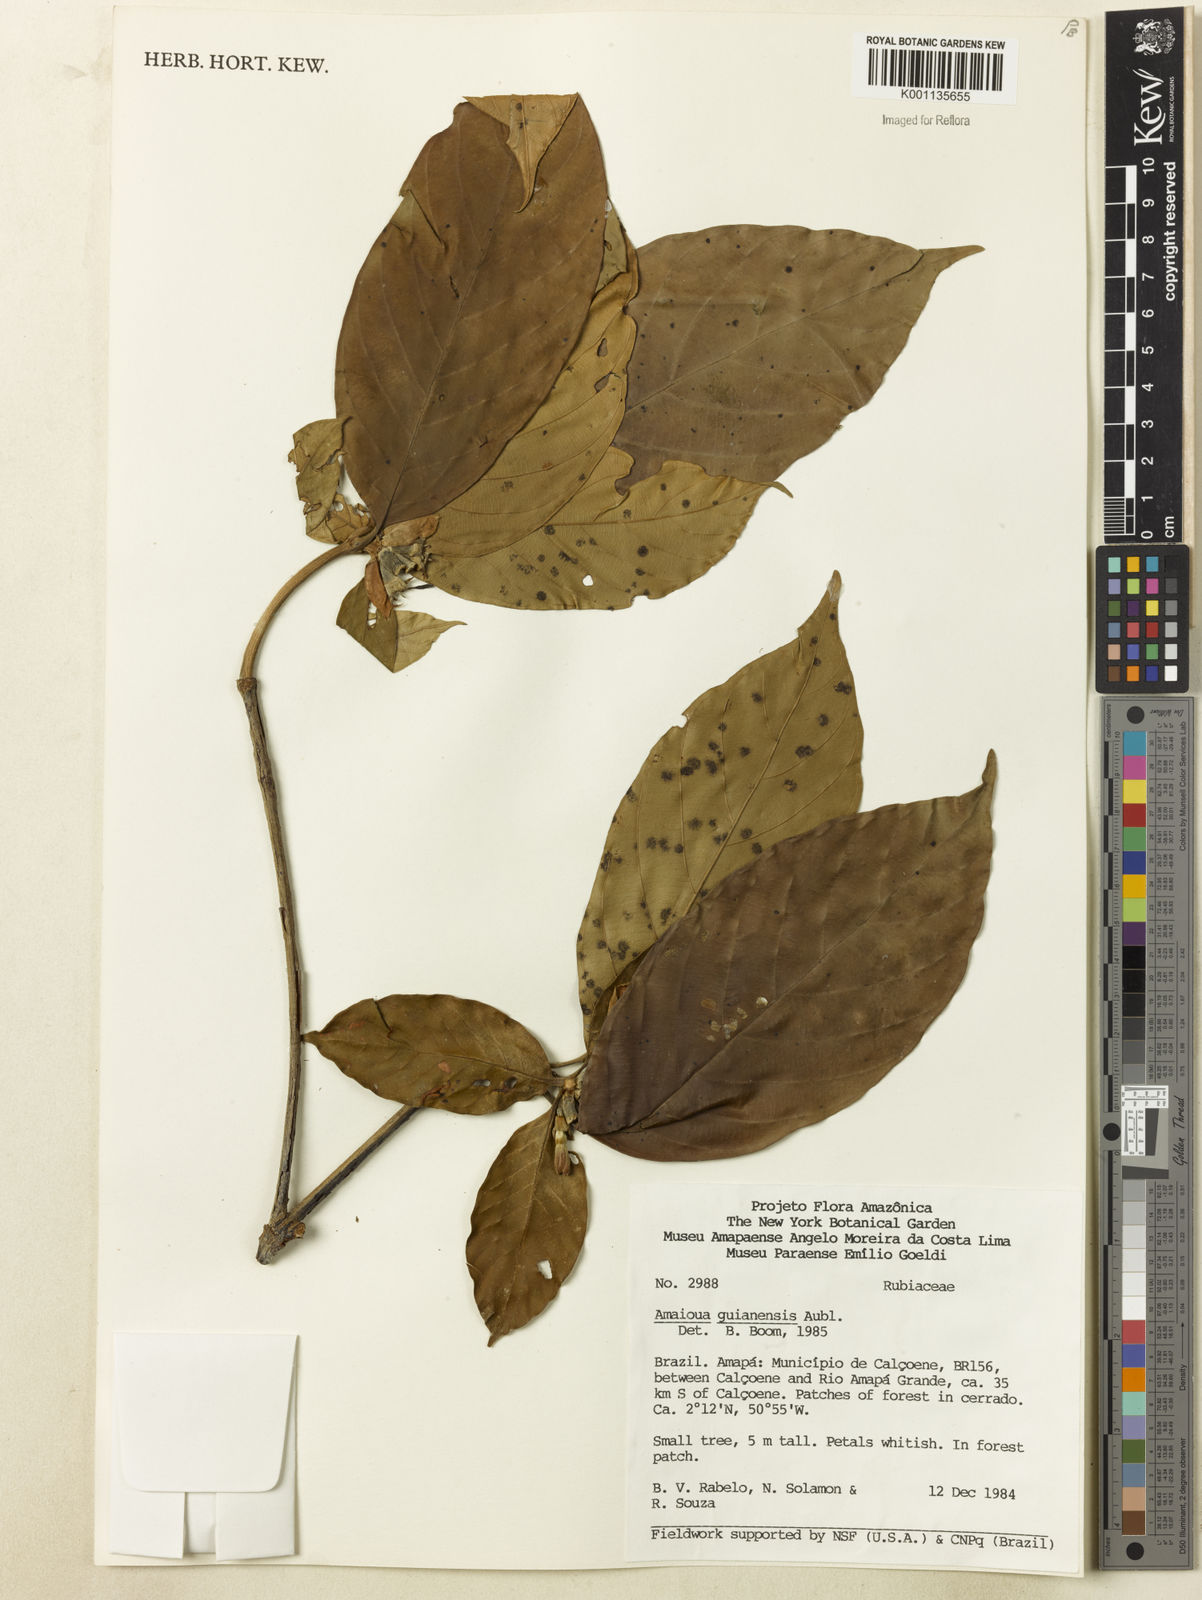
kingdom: Plantae
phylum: Tracheophyta
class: Magnoliopsida
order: Gentianales
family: Rubiaceae
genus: Amaioua
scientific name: Amaioua guianensis
